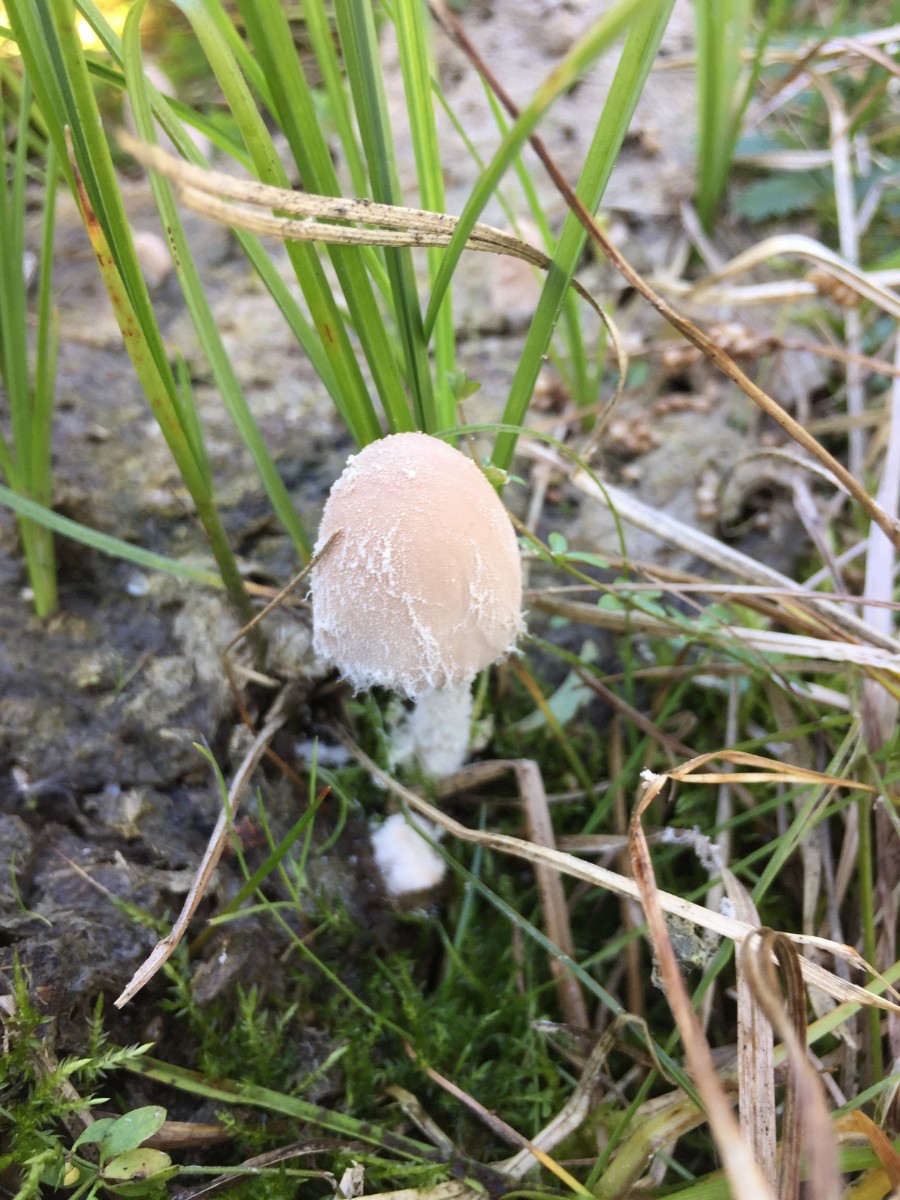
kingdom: Fungi
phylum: Basidiomycota
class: Agaricomycetes
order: Agaricales
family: Psathyrellaceae
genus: Coprinopsis
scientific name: Coprinopsis pseudonivea
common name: pudret blækhat
